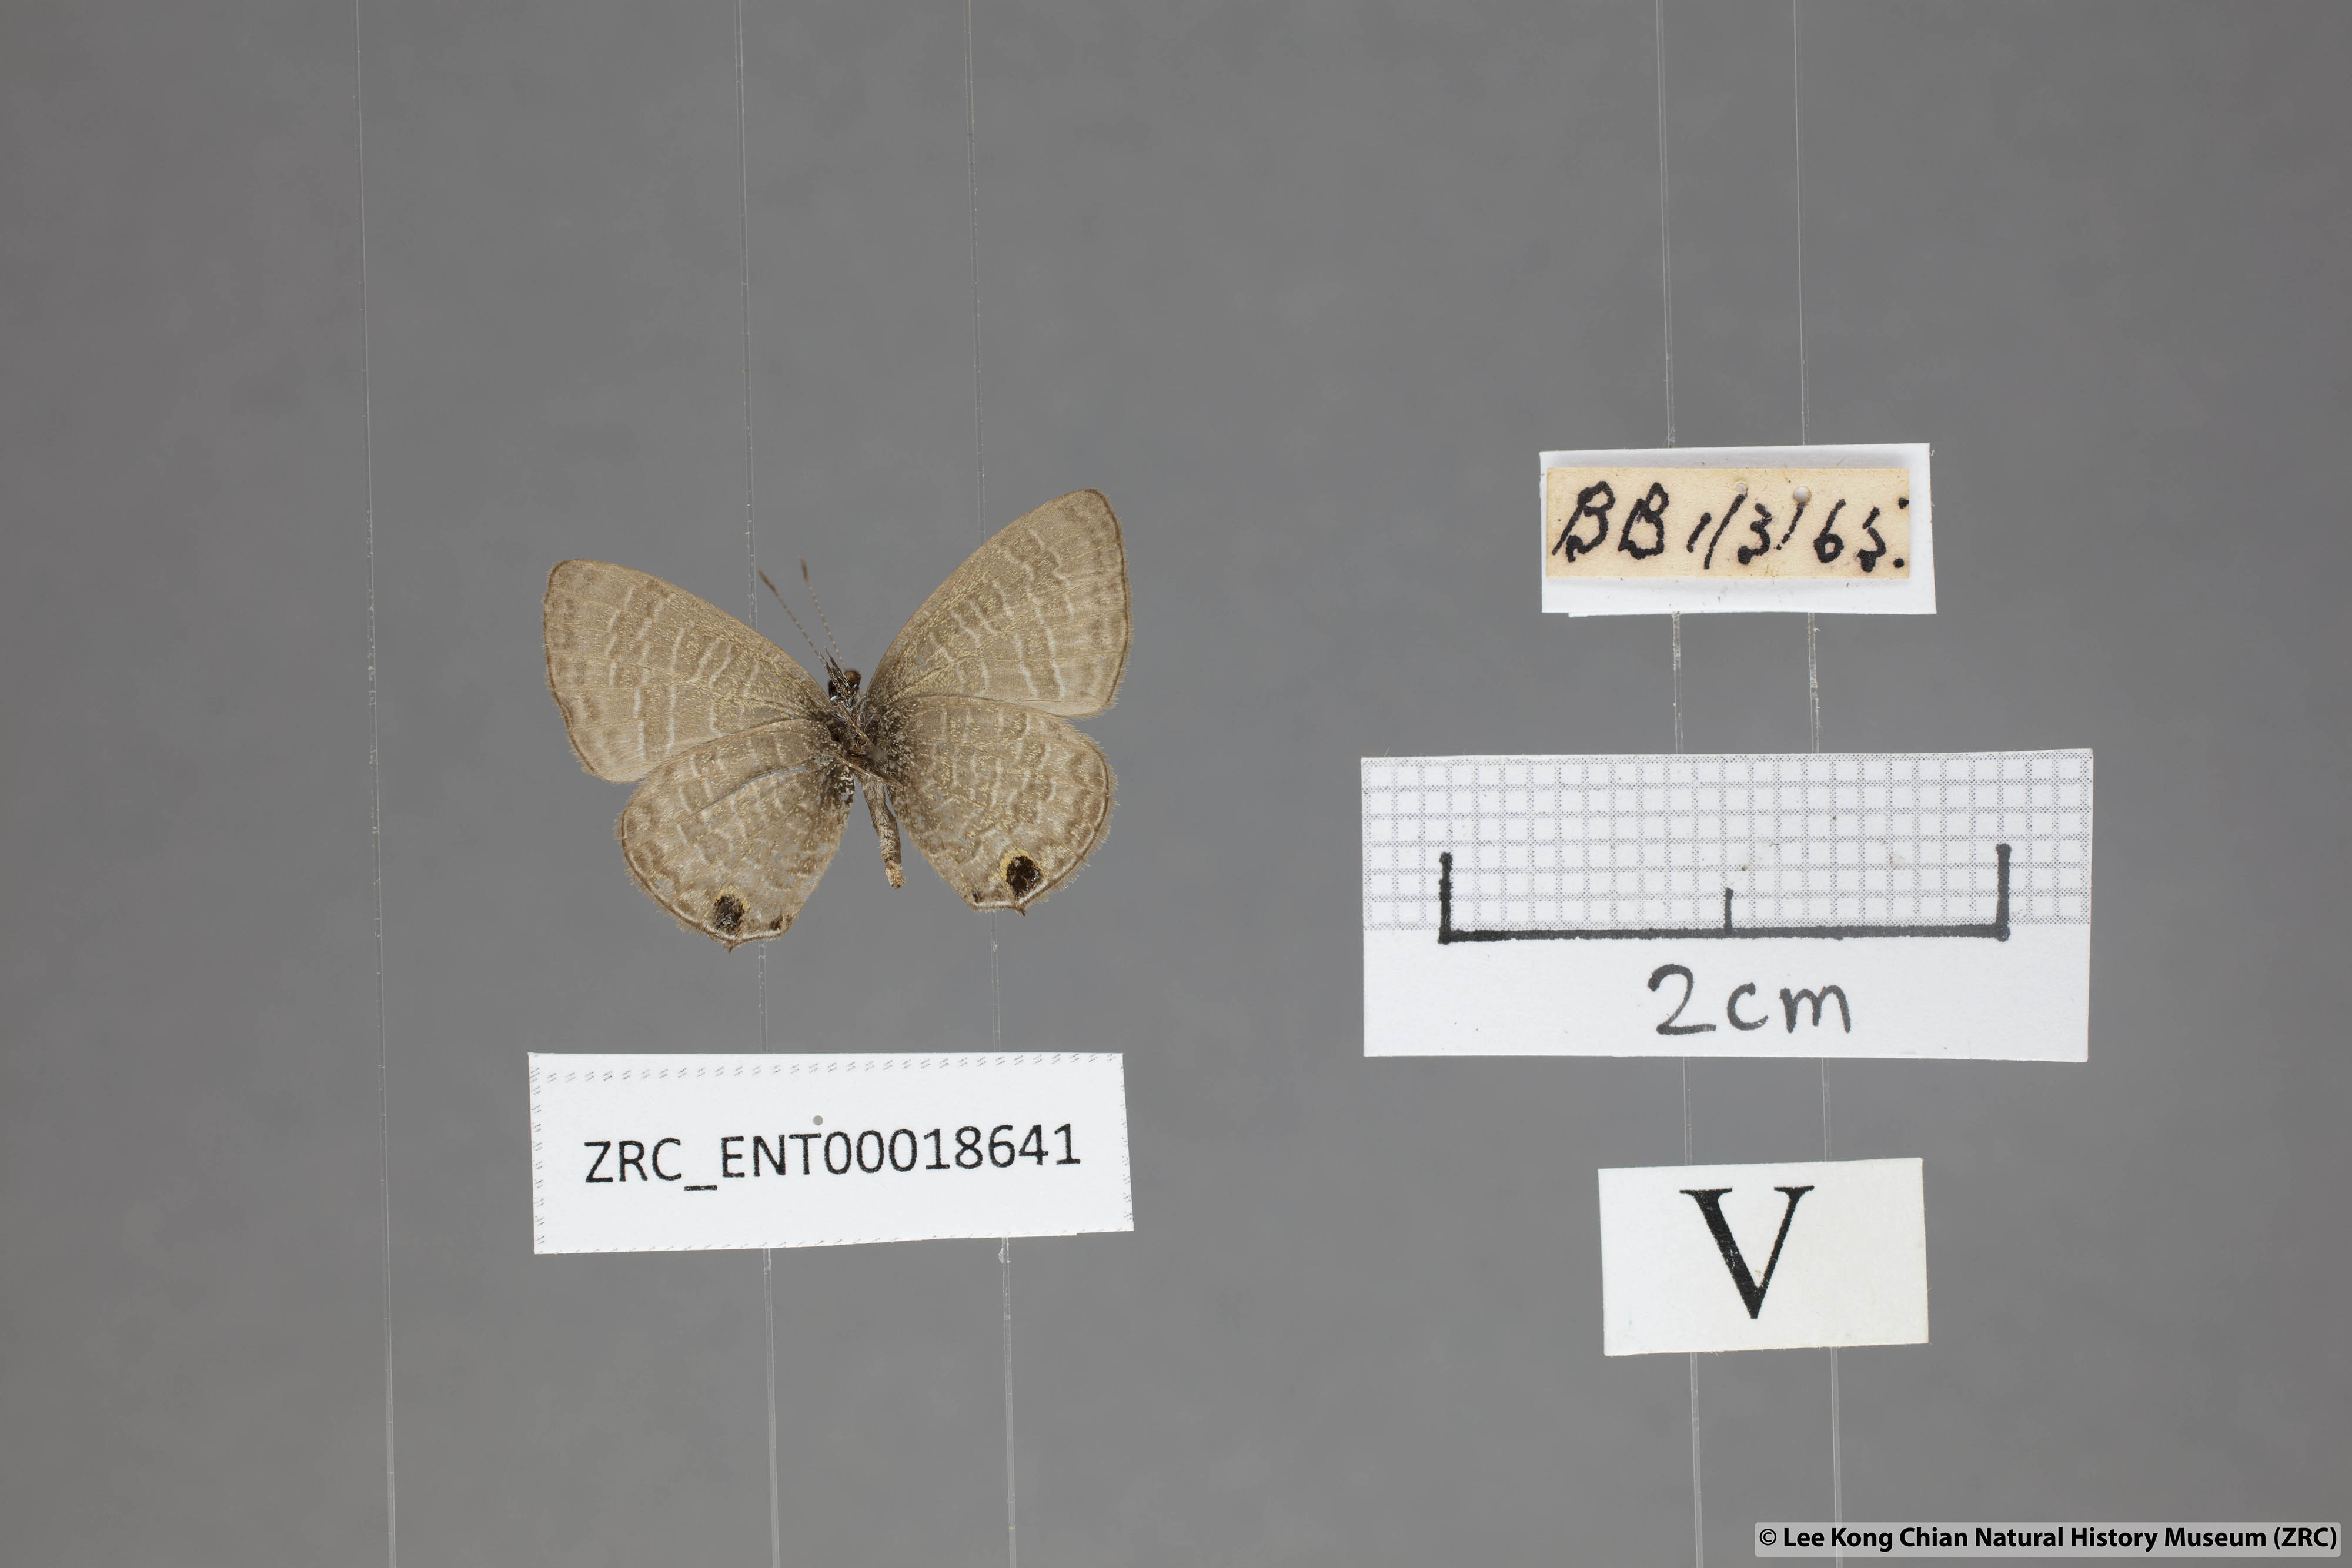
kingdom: Animalia
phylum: Arthropoda
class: Insecta
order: Lepidoptera
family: Lycaenidae
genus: Prosotas
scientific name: Prosotas nora
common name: Common line blue
